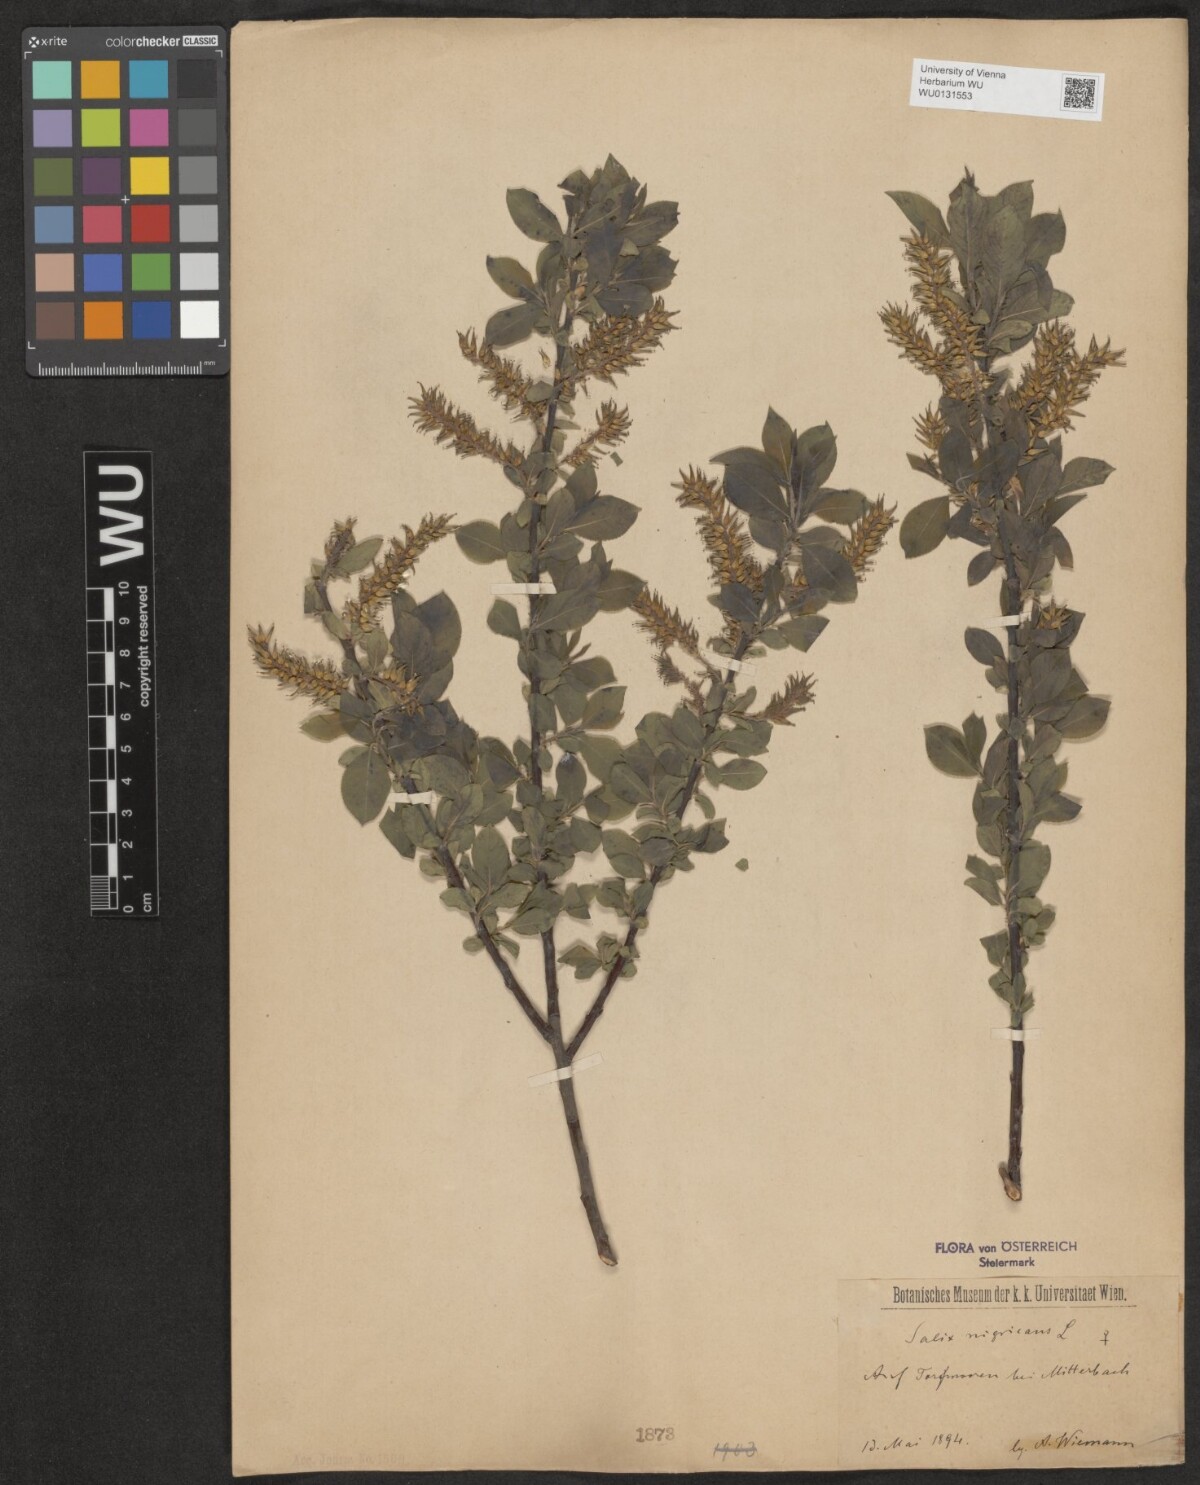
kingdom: Plantae
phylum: Tracheophyta
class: Magnoliopsida
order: Malpighiales
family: Salicaceae
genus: Salix
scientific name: Salix myrsinifolia
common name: Dark-leaved willow
